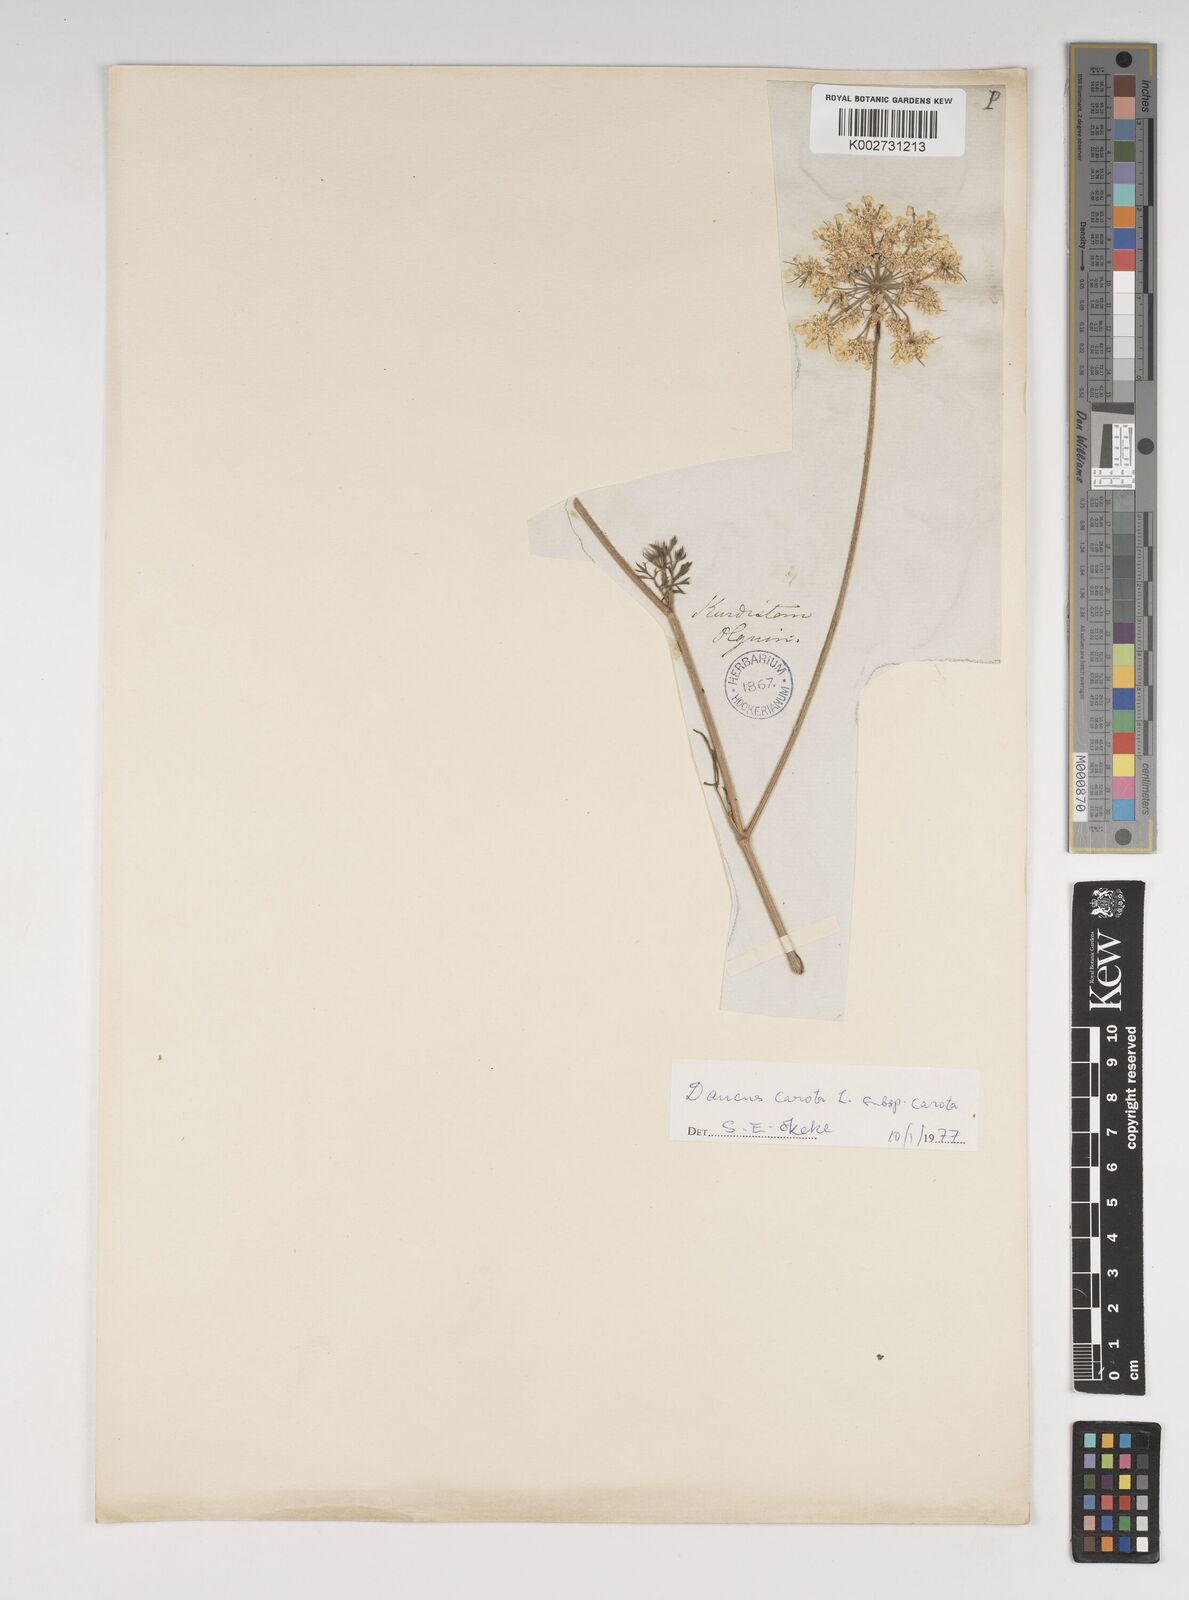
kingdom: Plantae
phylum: Tracheophyta
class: Magnoliopsida
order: Apiales
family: Apiaceae
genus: Daucus
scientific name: Daucus carota
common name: Wild carrot
